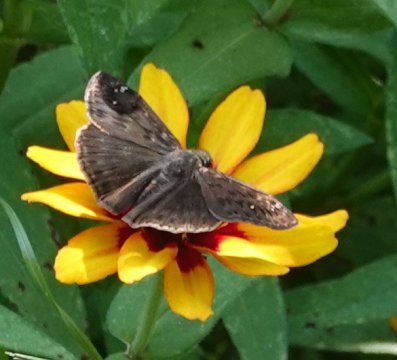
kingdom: Animalia
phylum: Arthropoda
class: Insecta
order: Lepidoptera
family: Hesperiidae
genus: Gesta
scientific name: Gesta
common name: Horace's Duskywing
